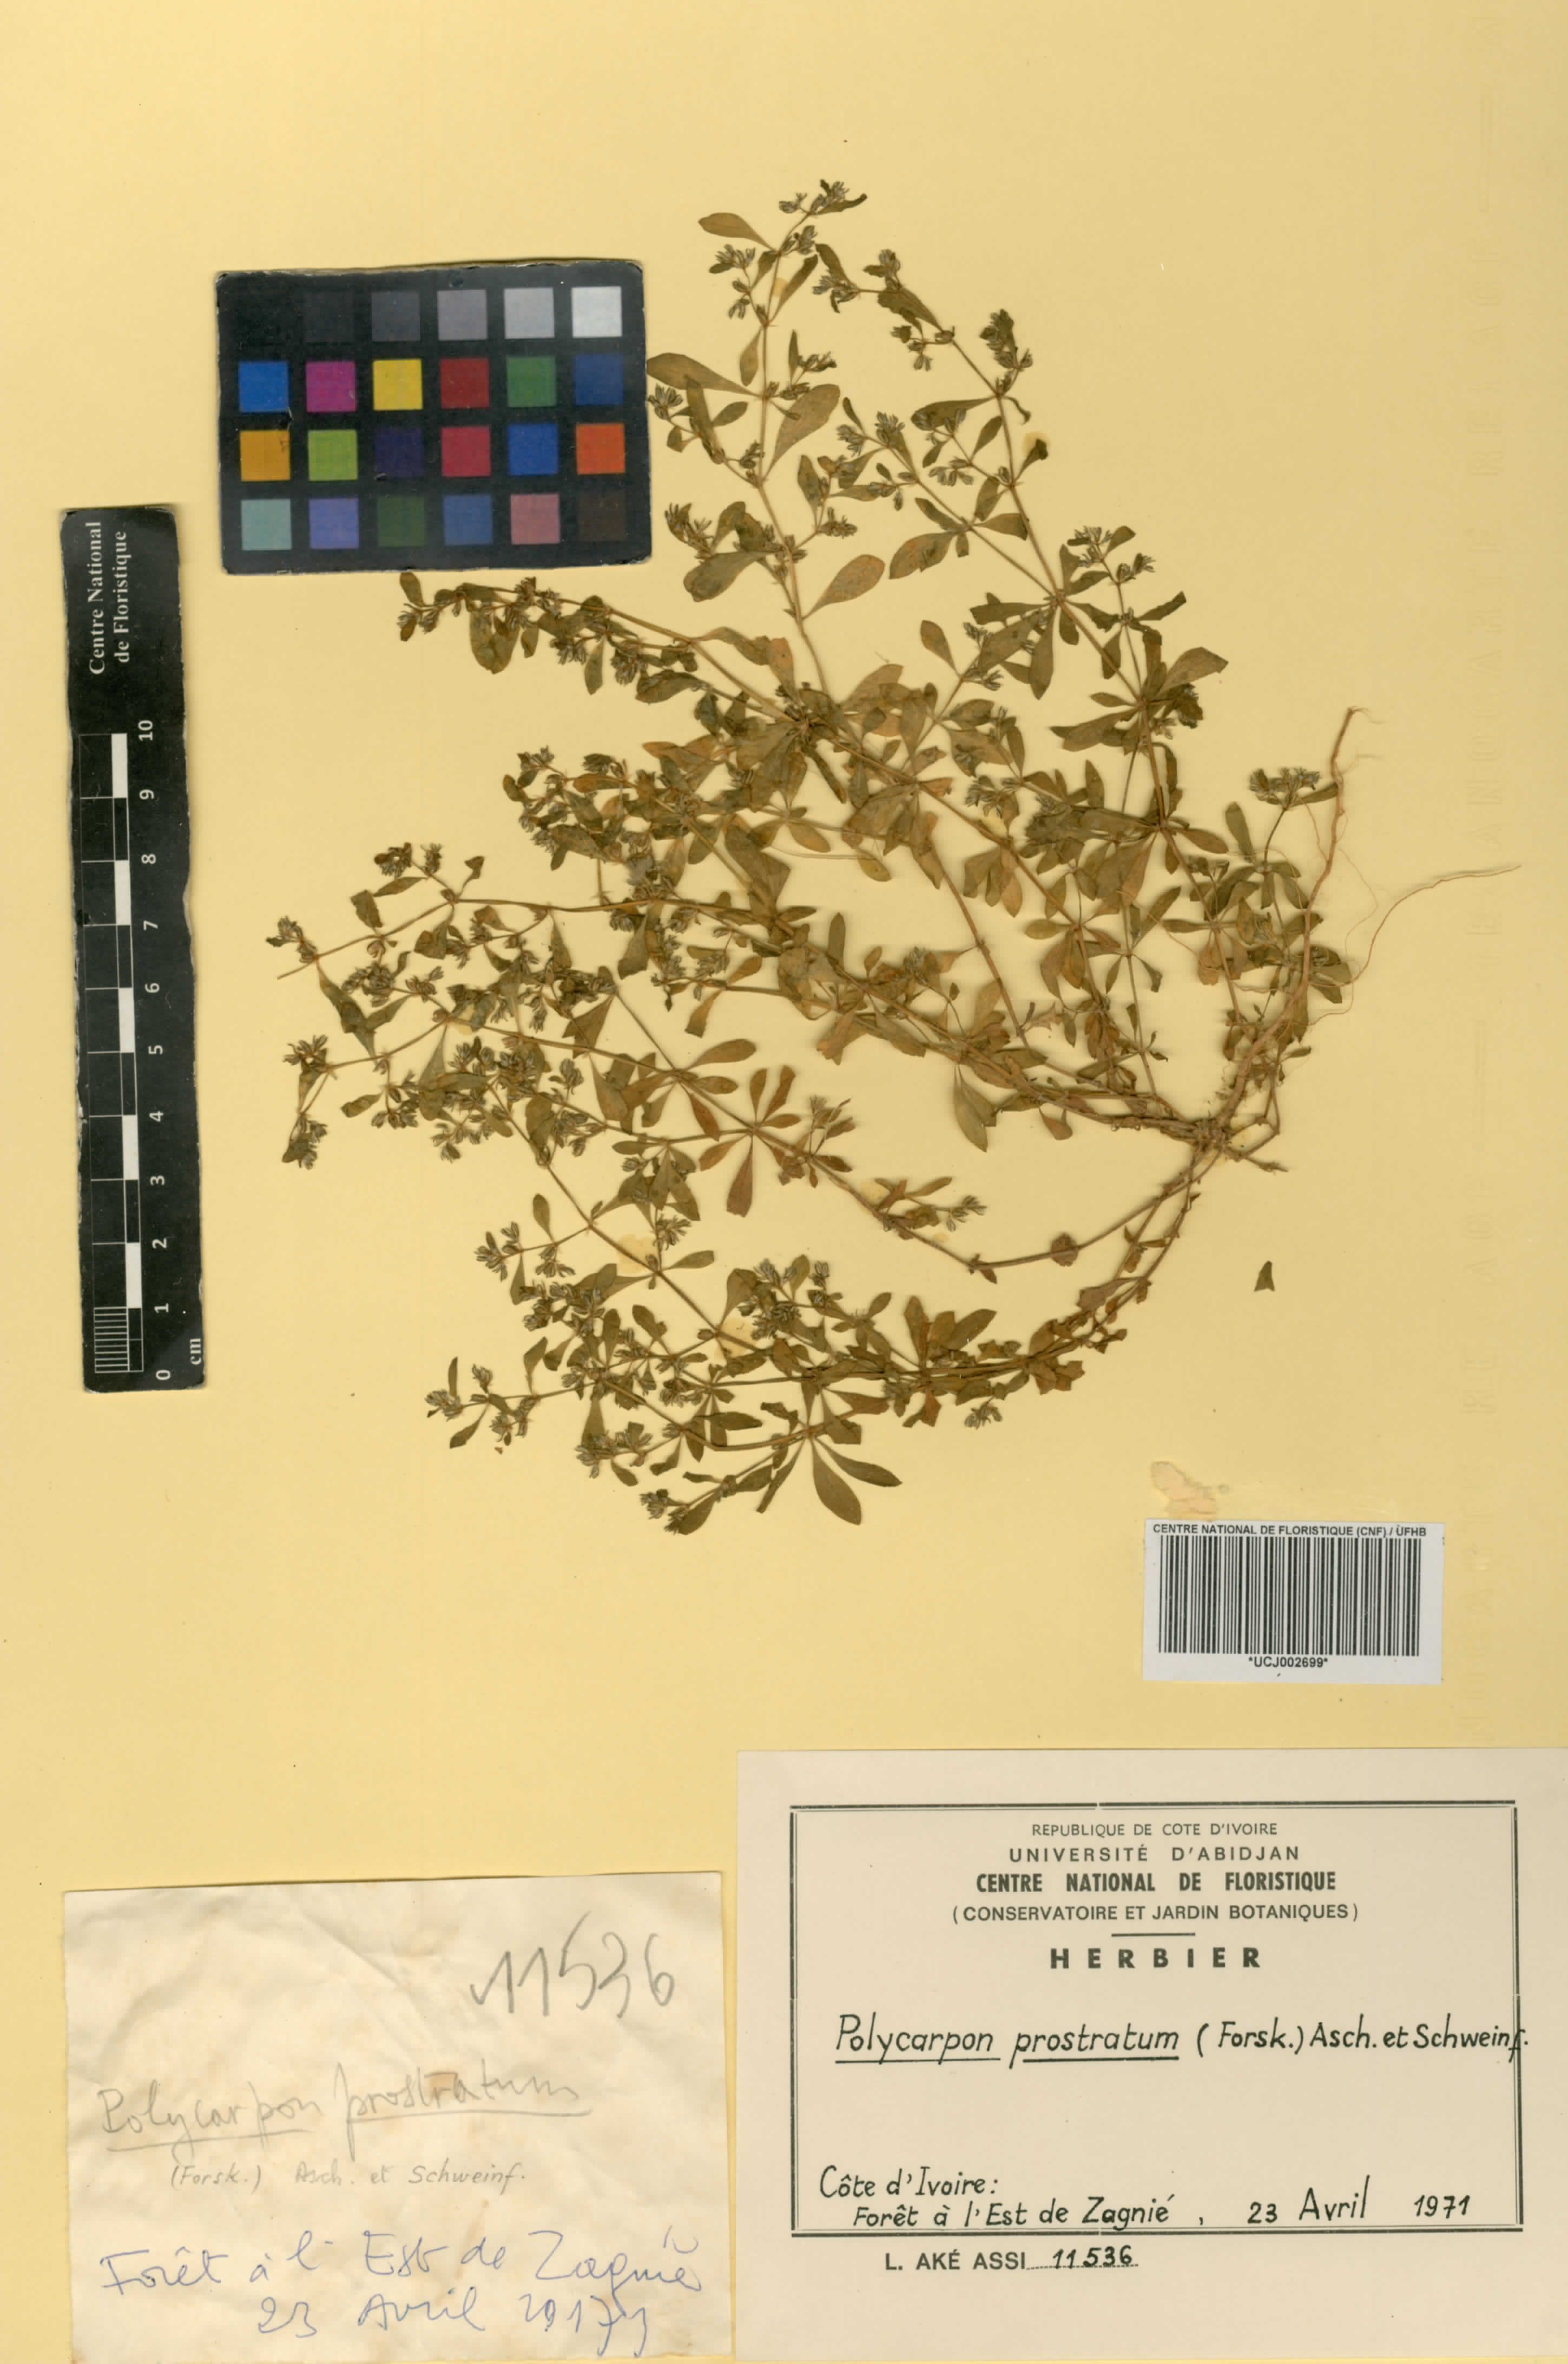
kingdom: Plantae
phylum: Tracheophyta
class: Magnoliopsida
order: Caryophyllales
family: Caryophyllaceae
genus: Polycarpon
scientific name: Polycarpon prostratum
